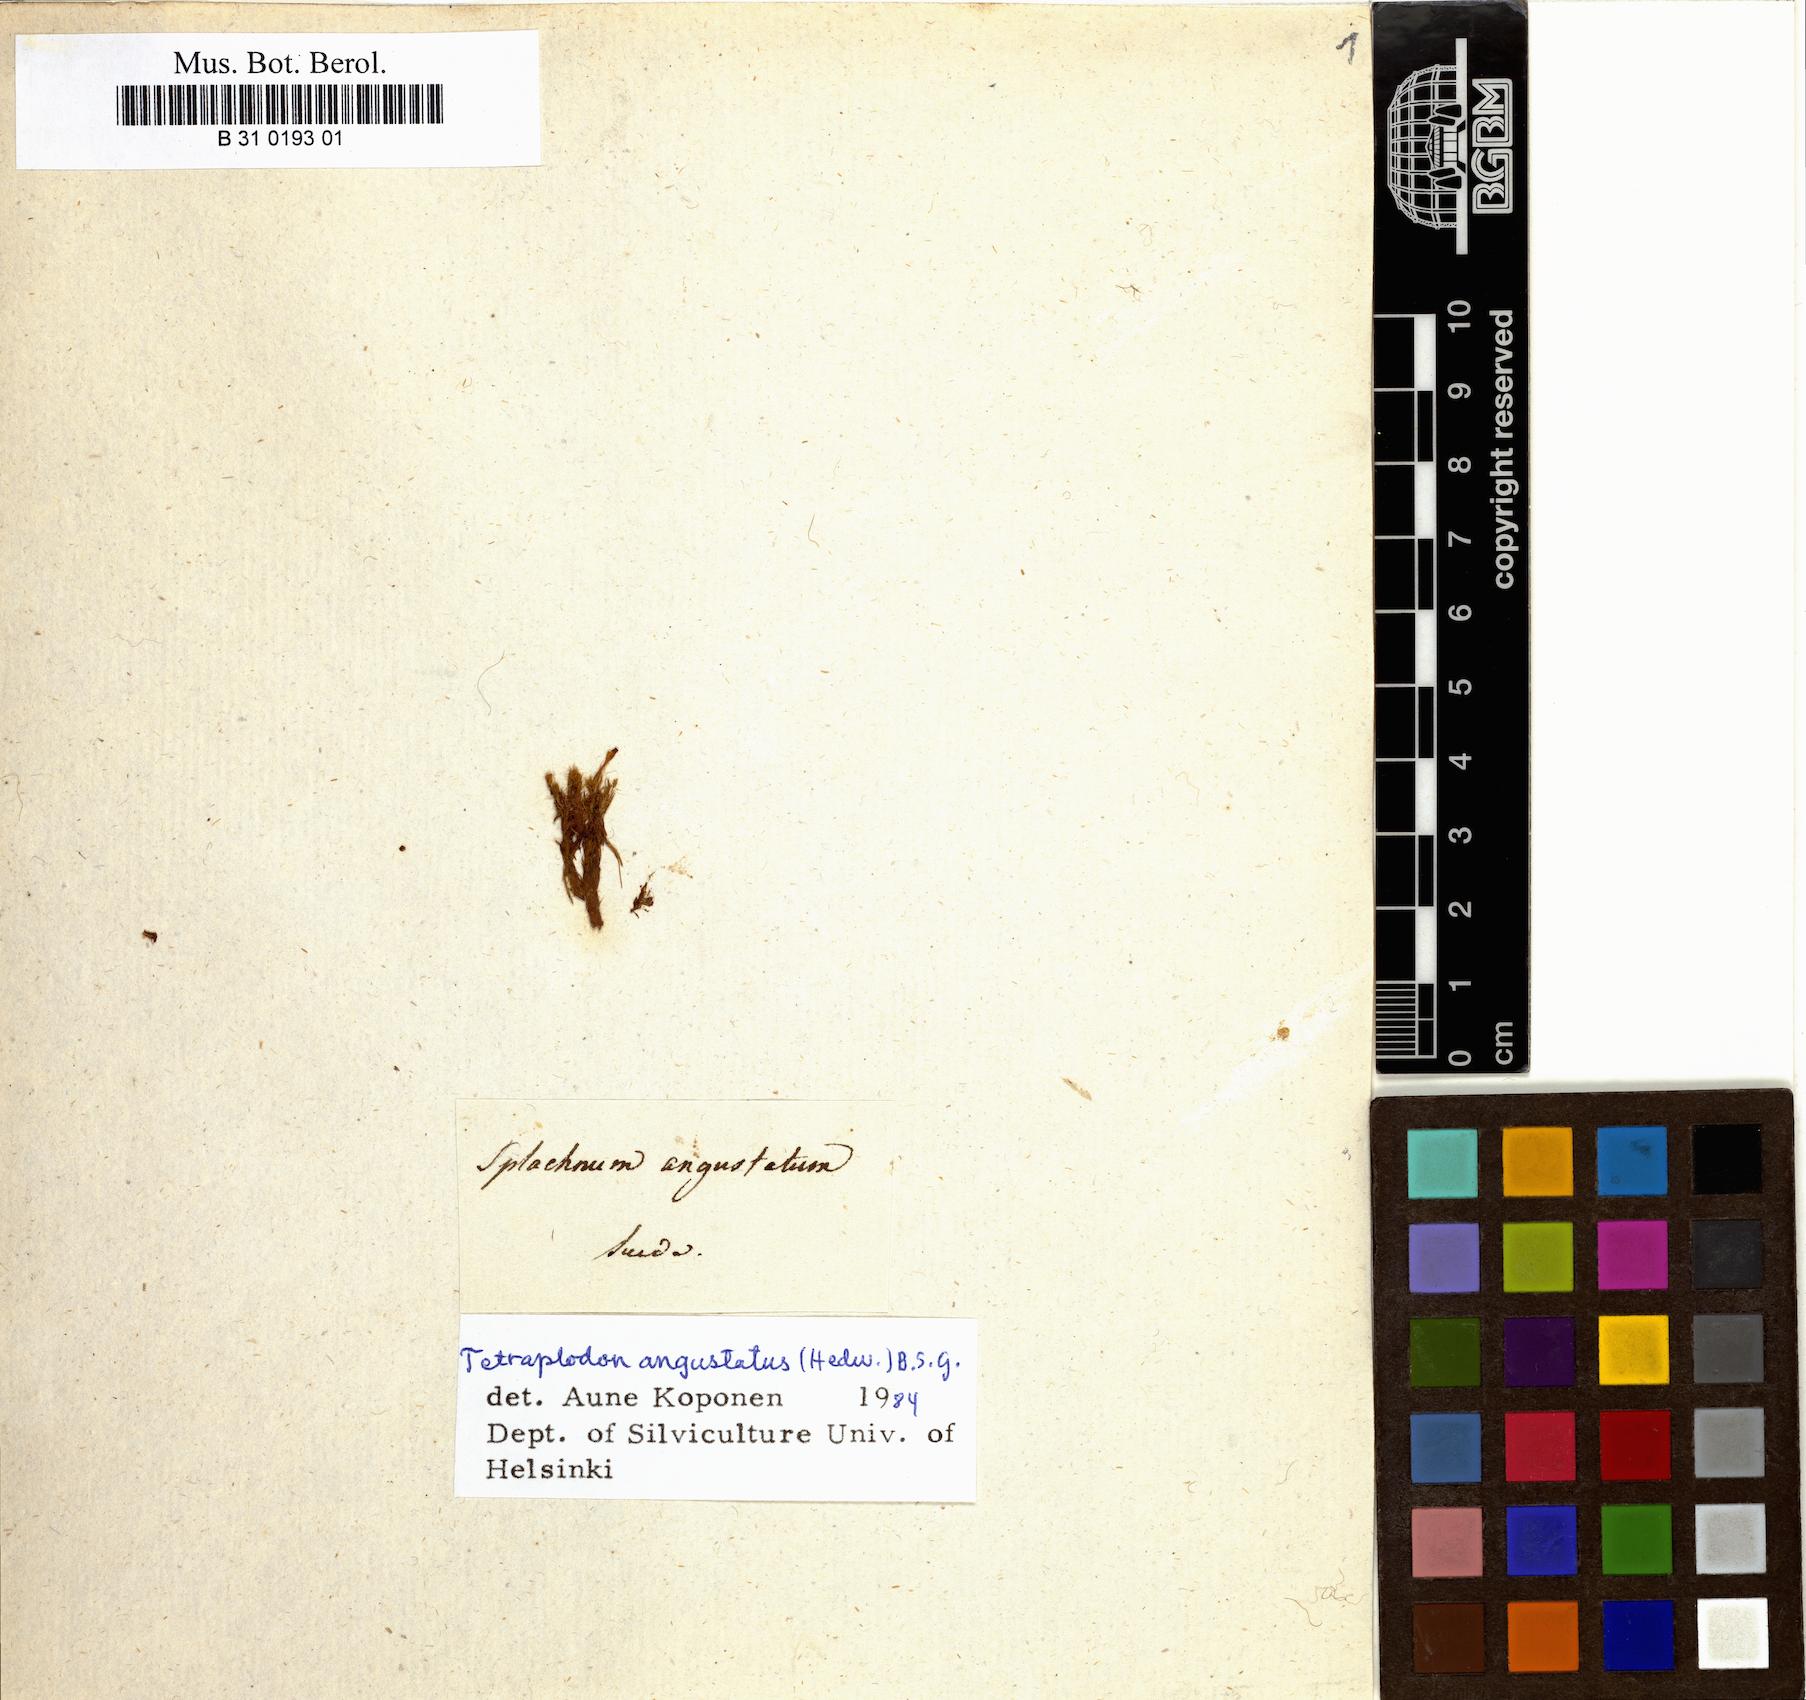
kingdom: Plantae
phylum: Bryophyta
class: Bryopsida
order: Splachnales
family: Splachnaceae
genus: Tetraplodon
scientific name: Tetraplodon angustatus
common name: Narrow cruet-moss
